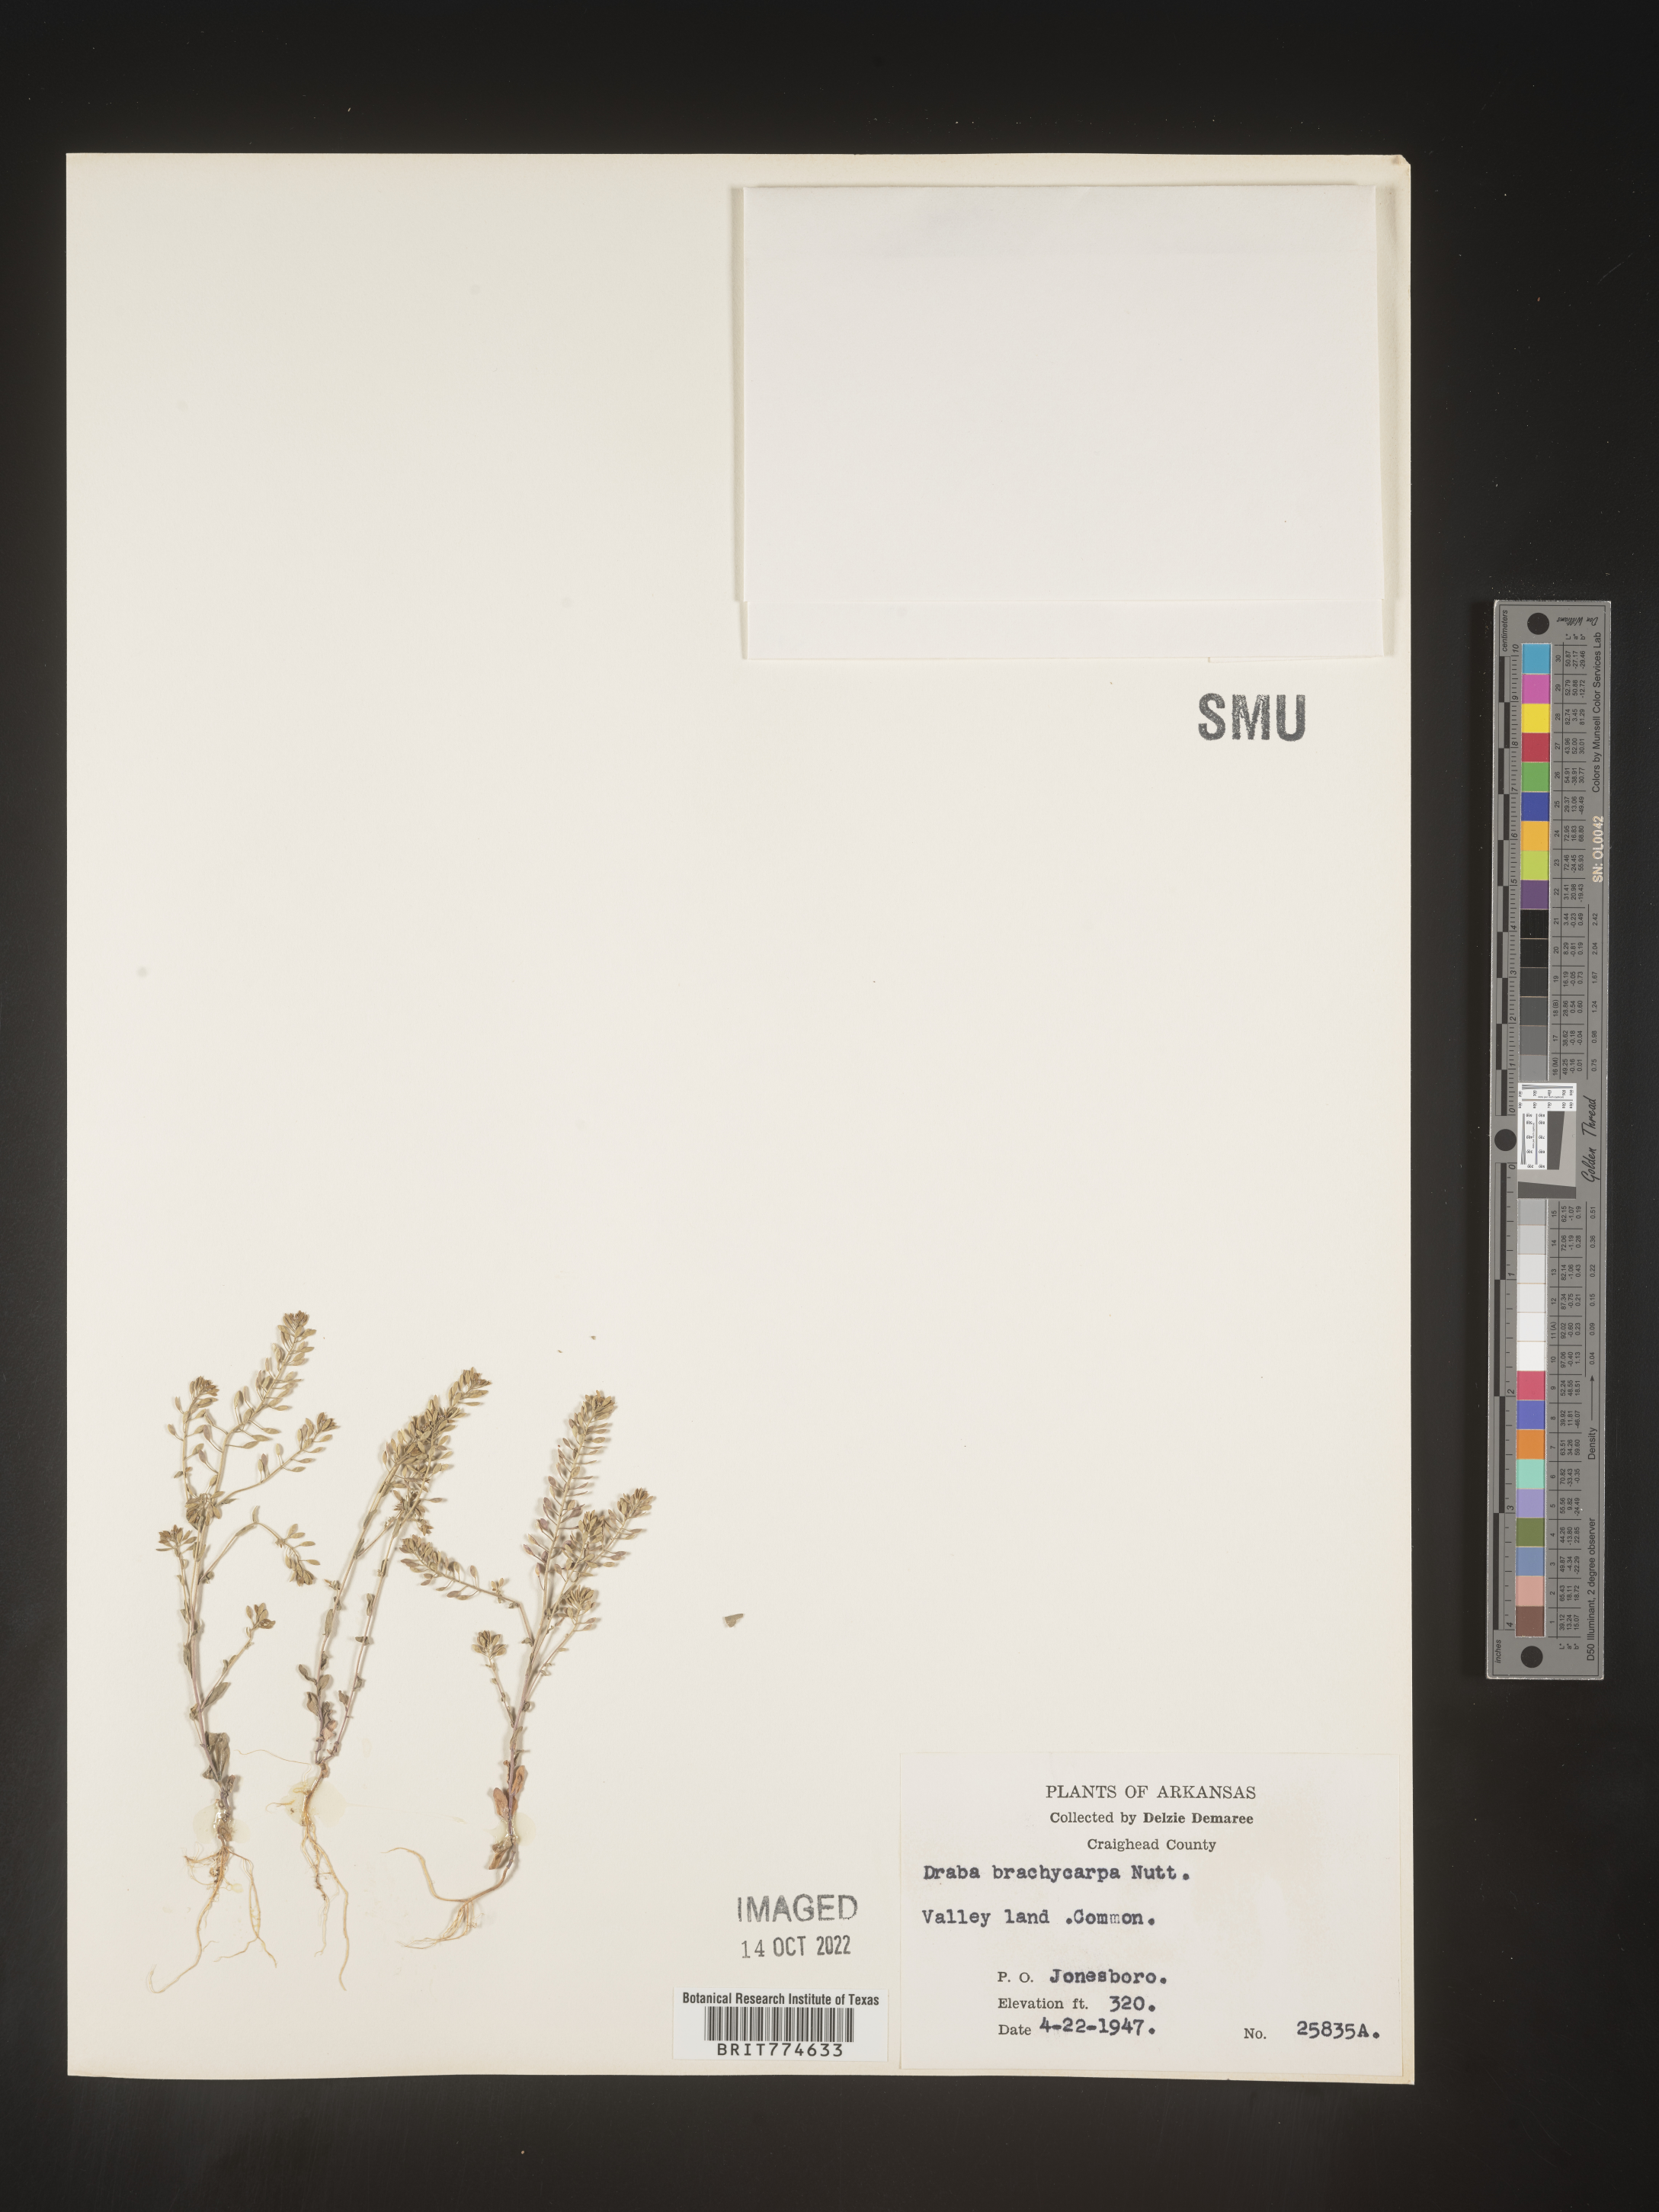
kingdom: Plantae
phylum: Tracheophyta
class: Magnoliopsida
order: Brassicales
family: Brassicaceae
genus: Abdra
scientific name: Abdra brachycarpa
